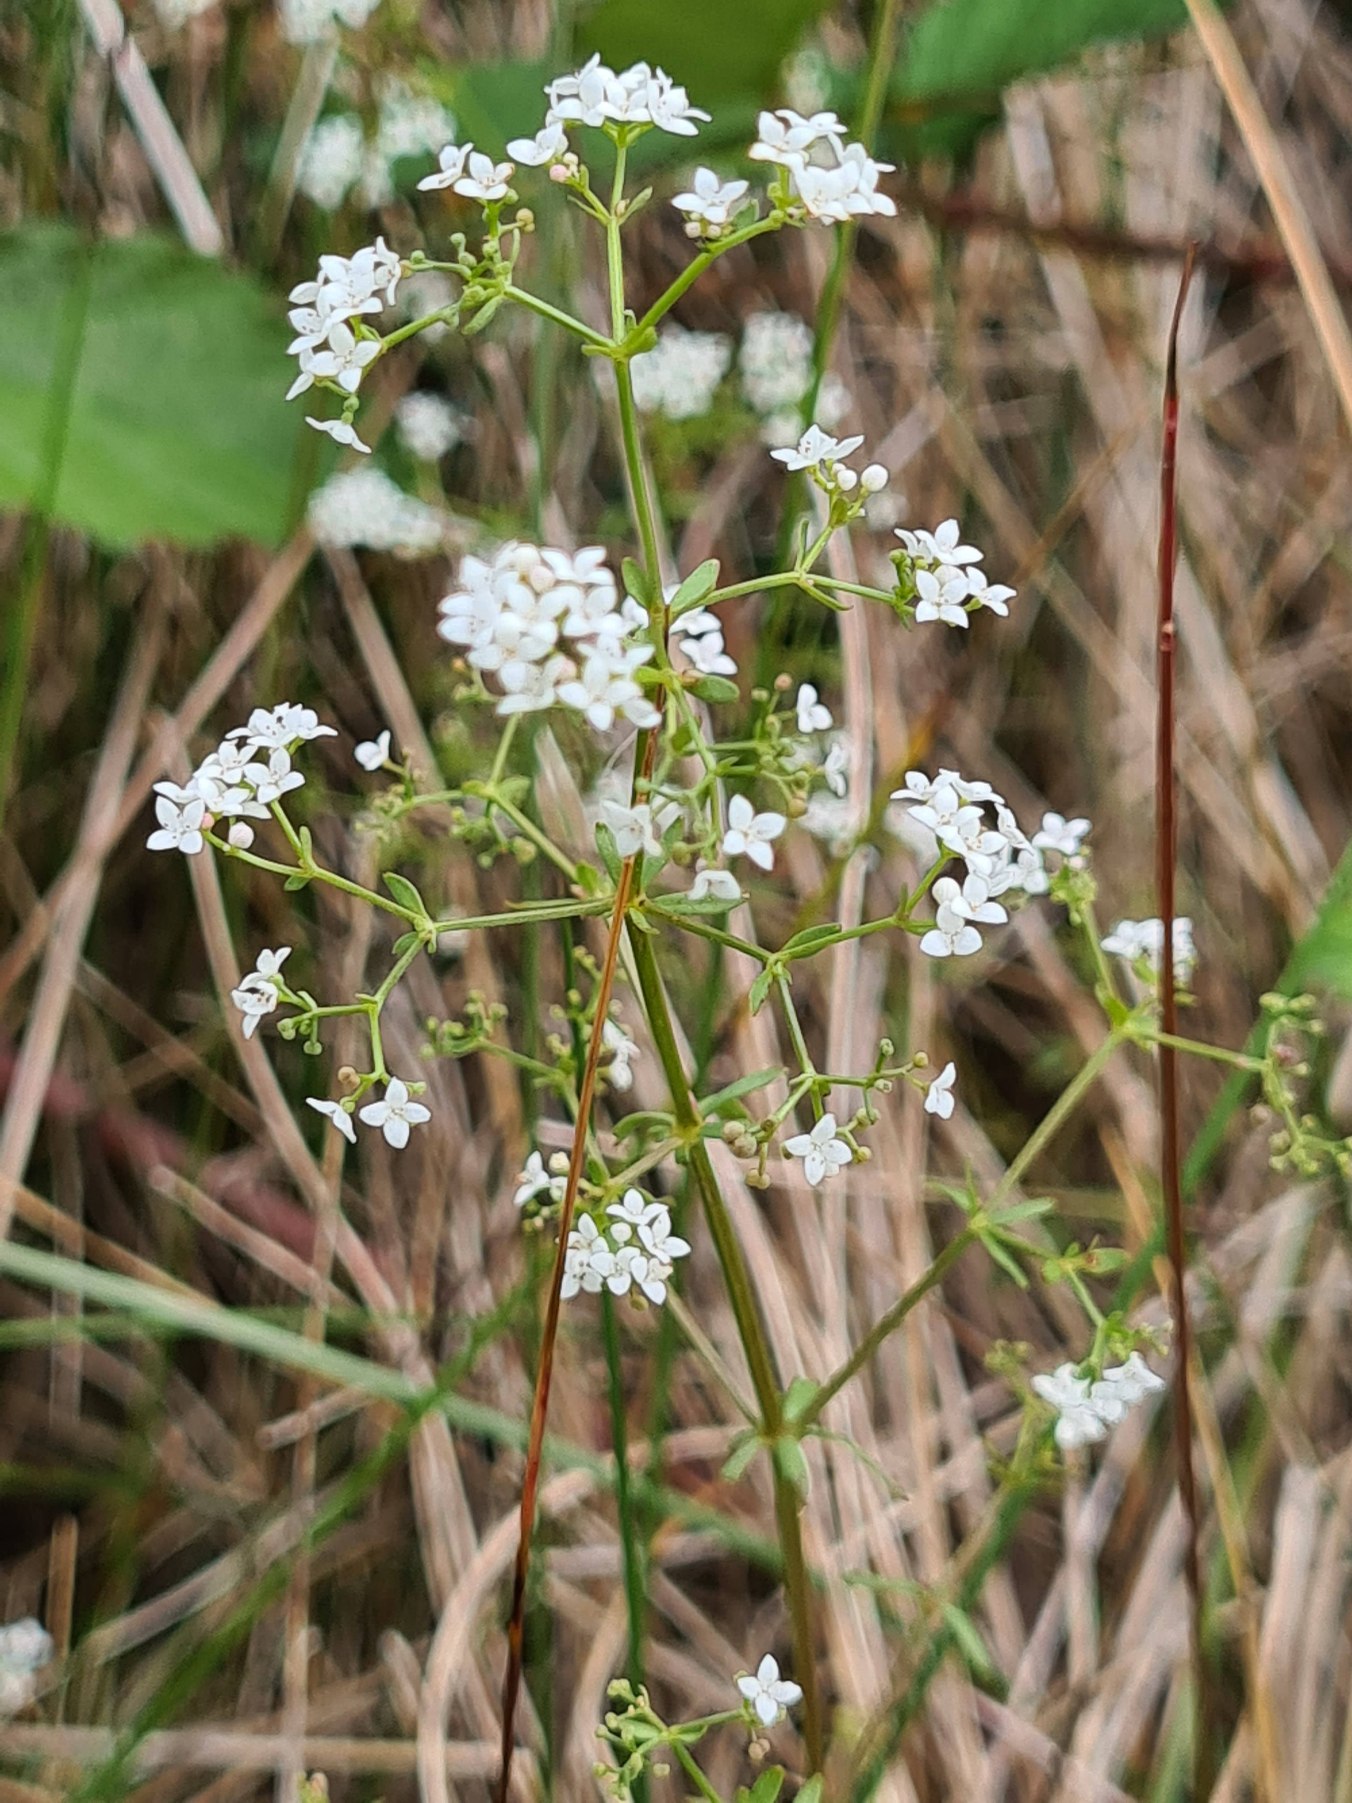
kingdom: Plantae
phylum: Tracheophyta
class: Magnoliopsida
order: Gentianales
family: Rubiaceae
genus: Galium
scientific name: Galium palustre
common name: Kær-snerre
